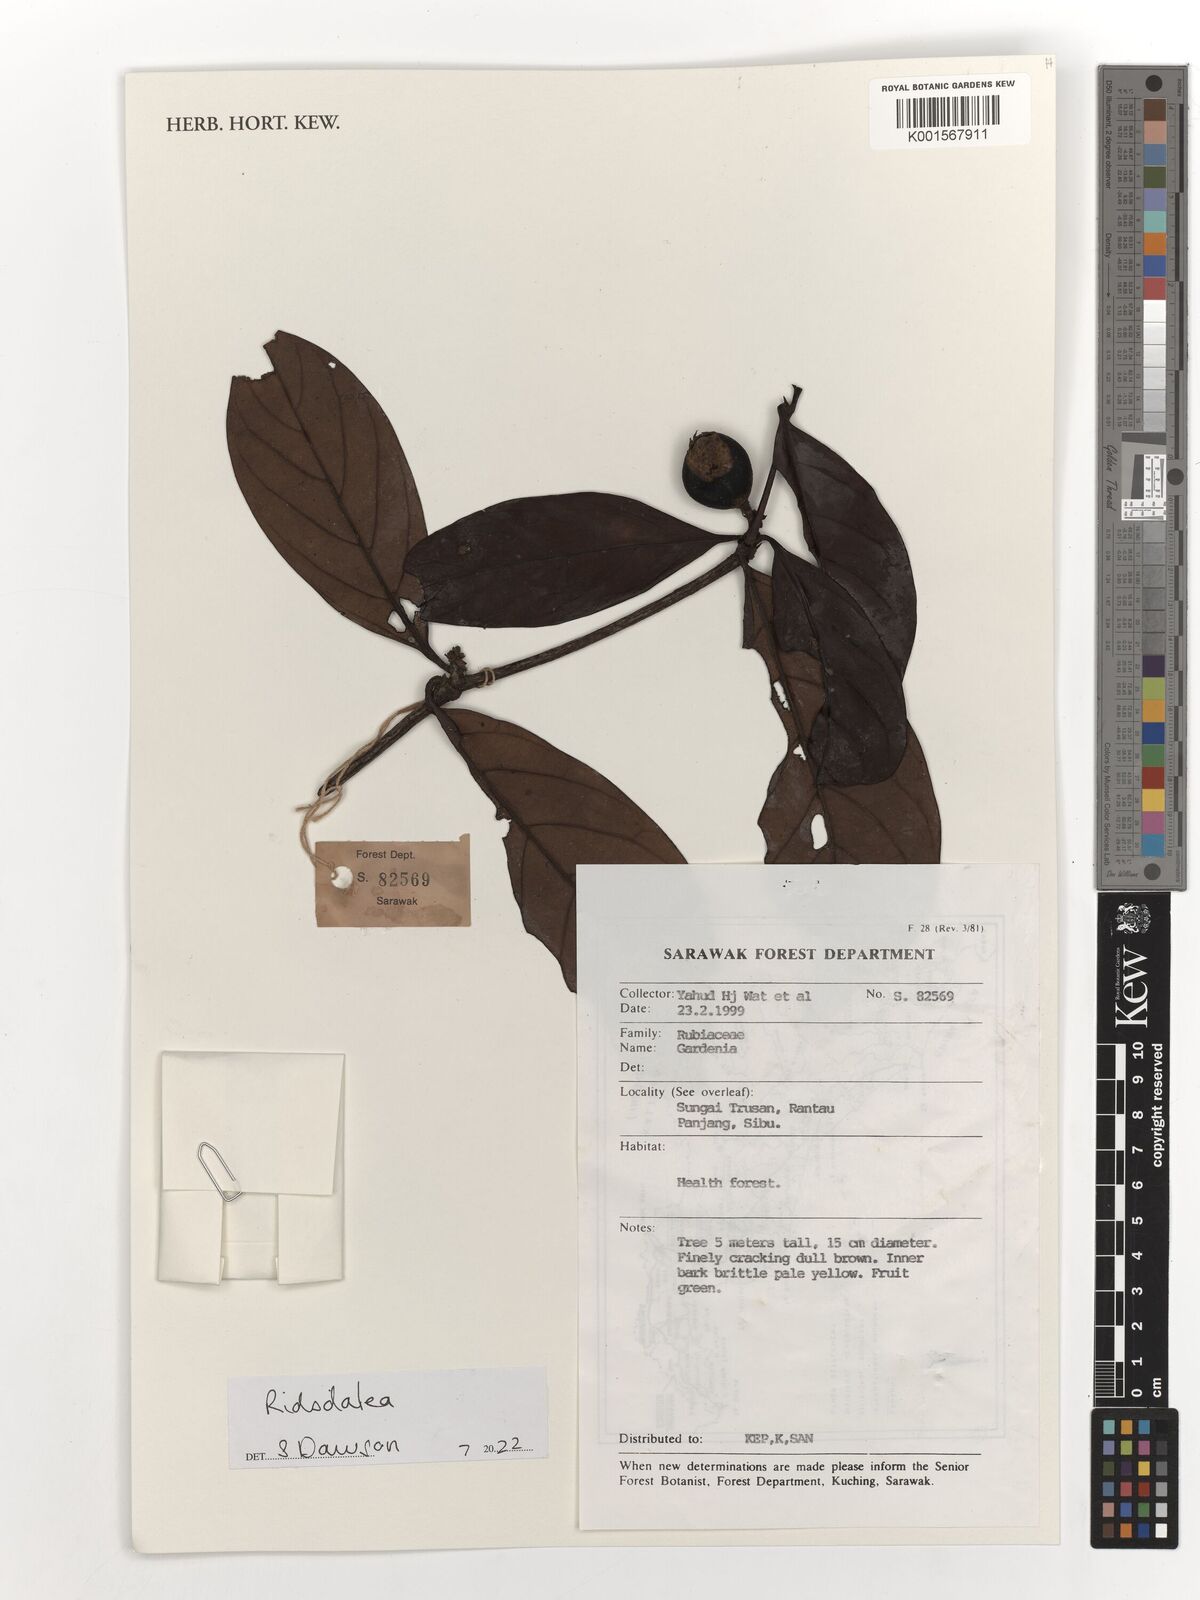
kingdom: Plantae
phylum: Tracheophyta
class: Magnoliopsida
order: Gentianales
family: Rubiaceae
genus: Ridsdalea
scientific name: Ridsdalea
